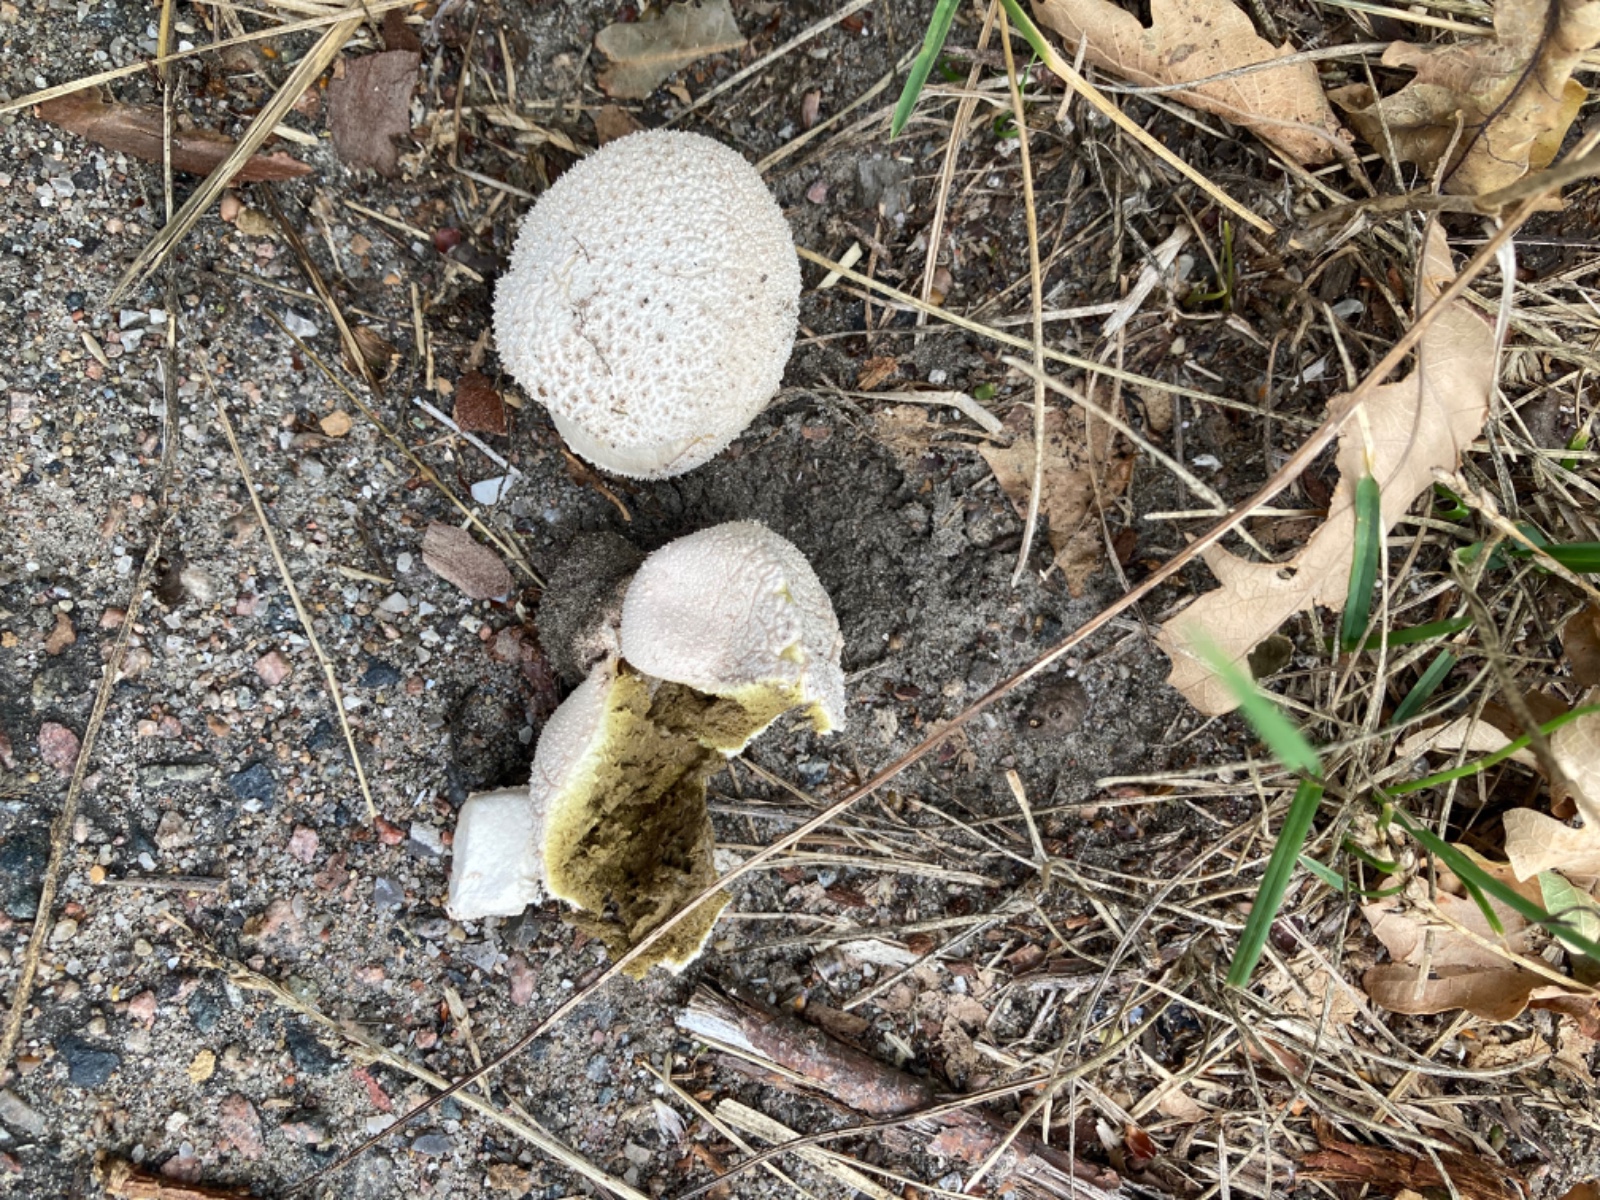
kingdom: Fungi
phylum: Basidiomycota
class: Agaricomycetes
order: Agaricales
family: Lycoperdaceae
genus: Lycoperdon
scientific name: Lycoperdon pratense
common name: flad støvbold
